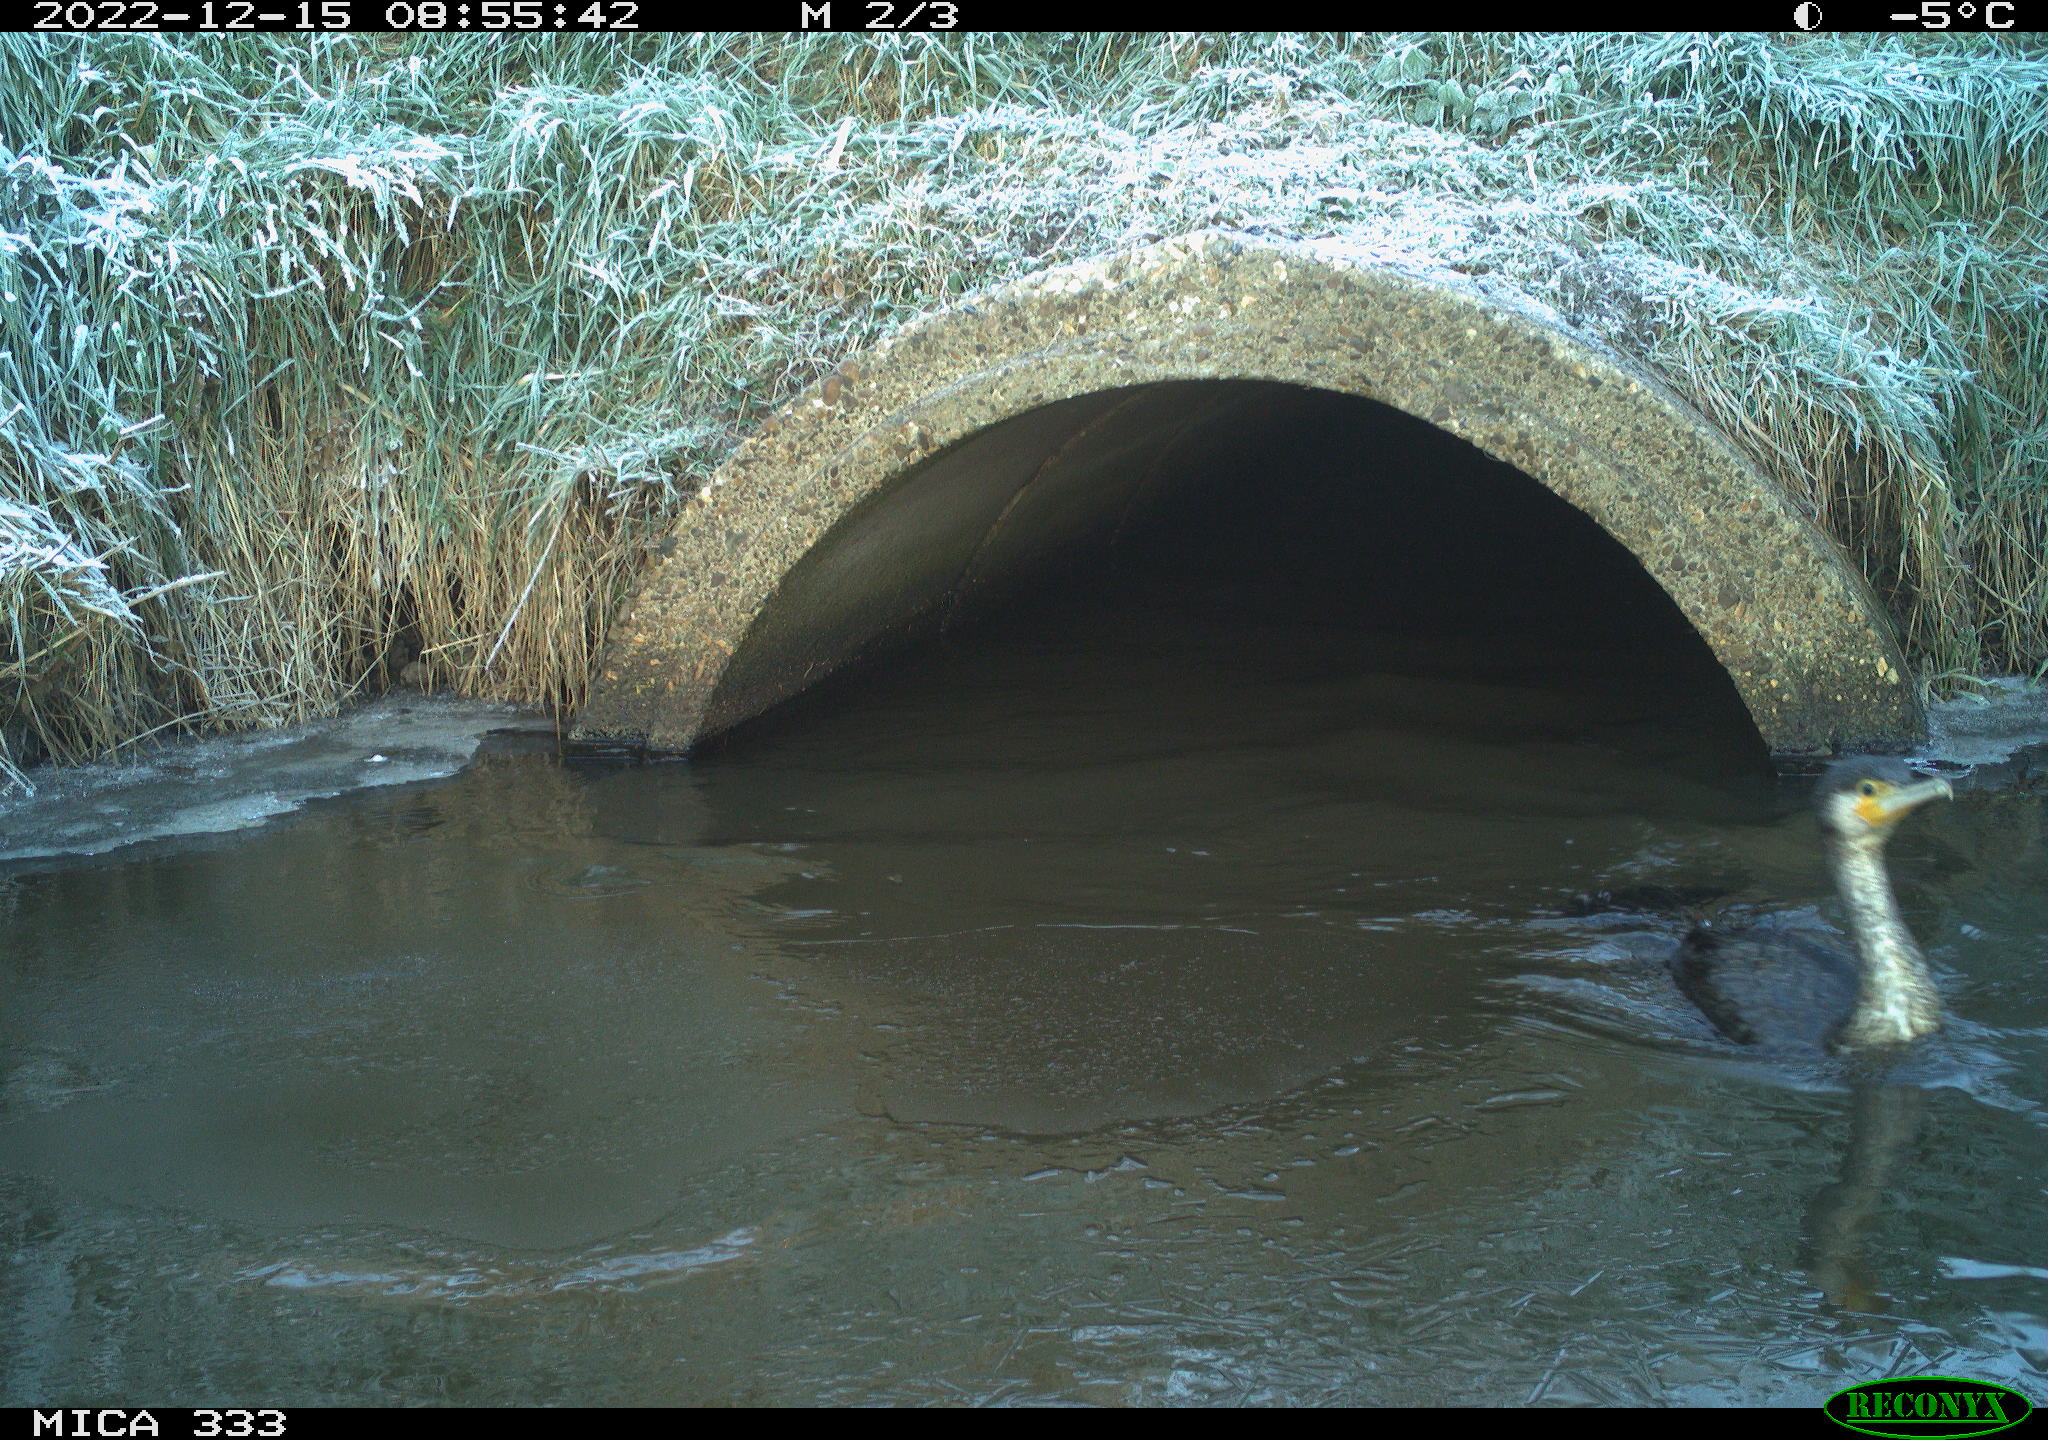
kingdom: Animalia
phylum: Chordata
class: Aves
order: Pelecaniformes
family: Ardeidae
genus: Ardea
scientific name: Ardea cinerea
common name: Grey heron
